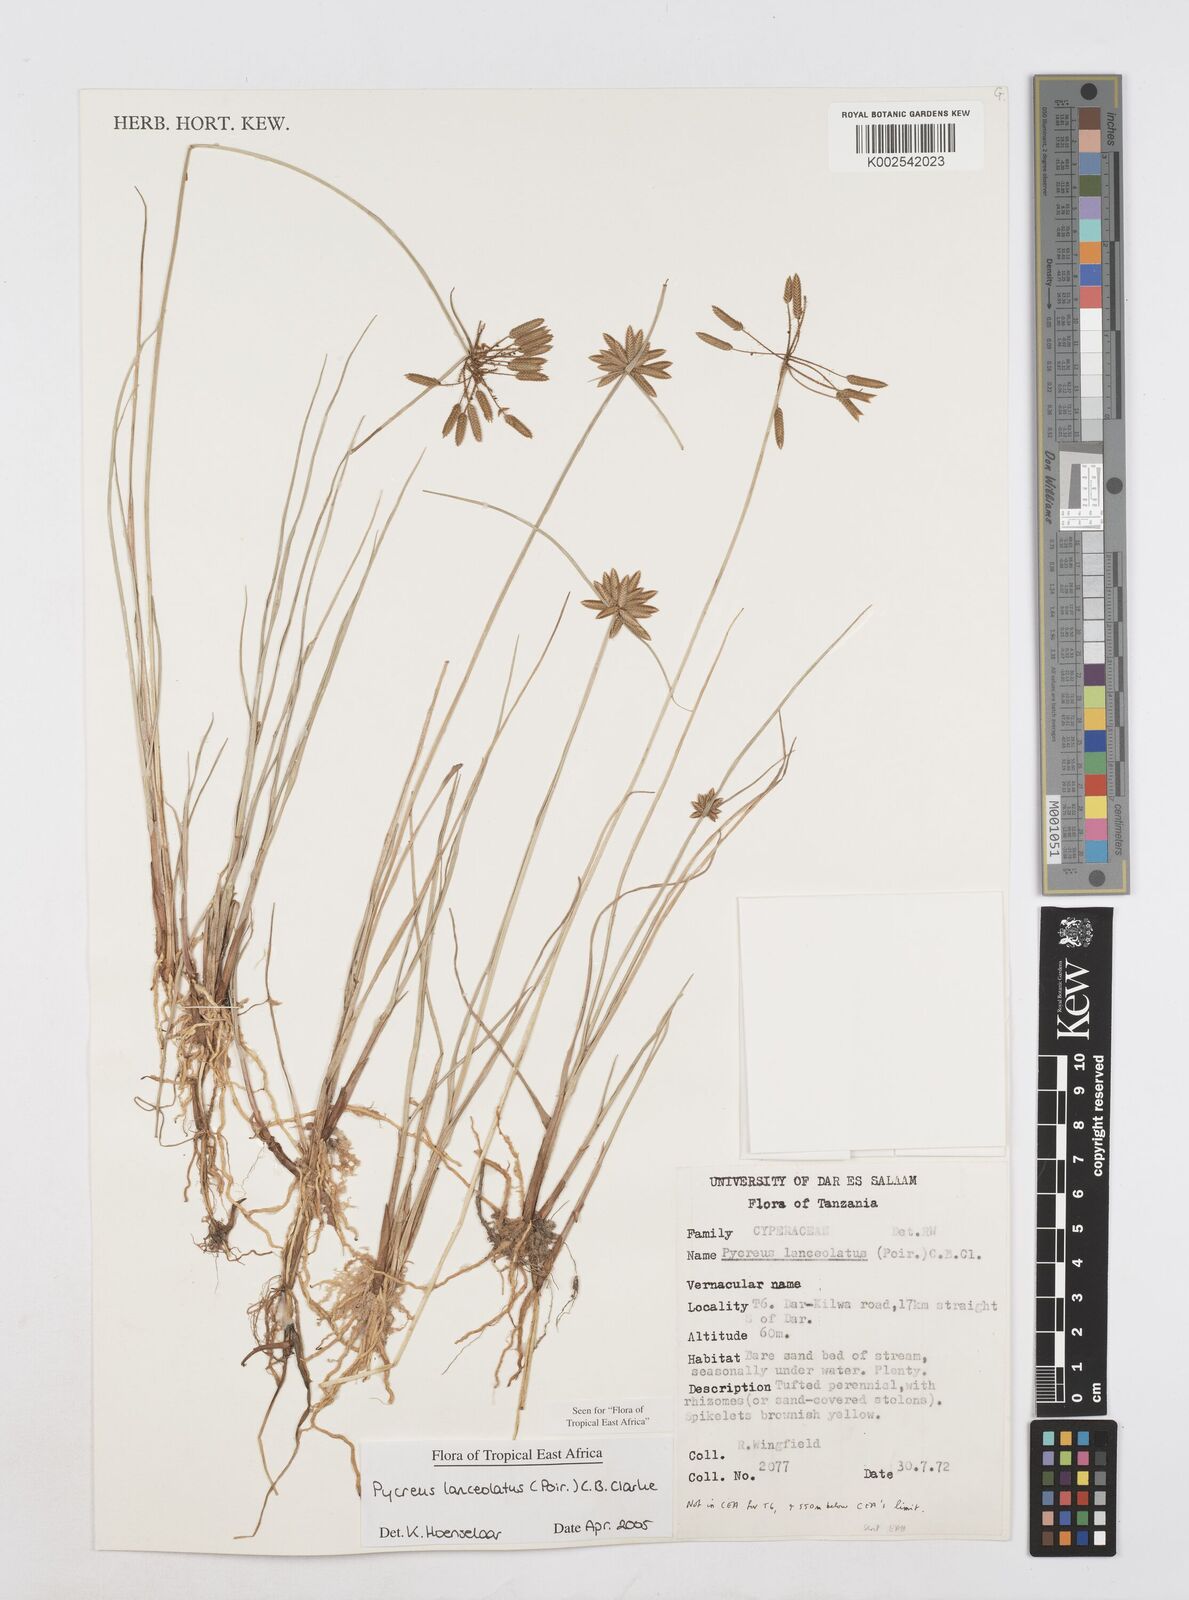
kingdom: Plantae
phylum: Tracheophyta
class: Liliopsida
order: Poales
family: Cyperaceae
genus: Cyperus
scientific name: Cyperus lanceolatus
